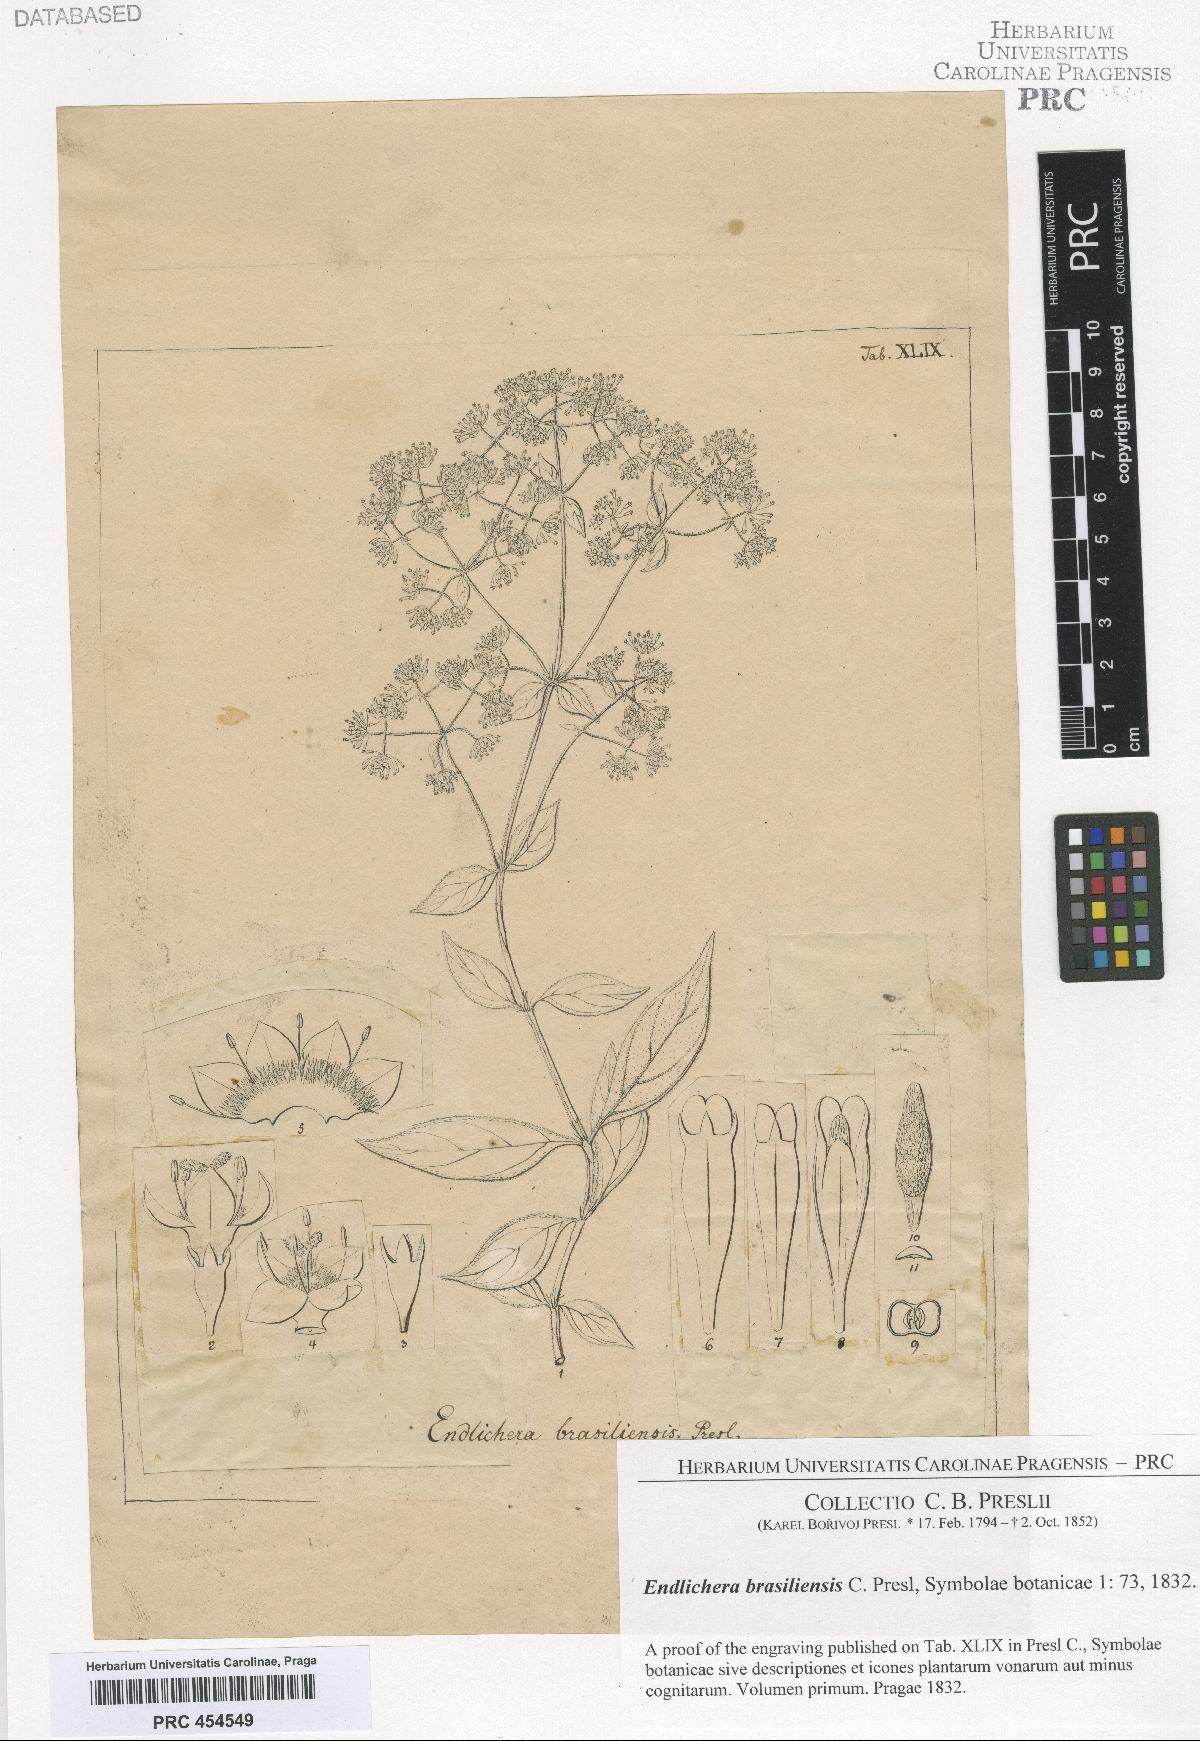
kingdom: Plantae
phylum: Tracheophyta
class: Magnoliopsida
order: Gentianales
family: Rubiaceae
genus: Emmeorhiza
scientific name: Emmeorhiza umbellata
